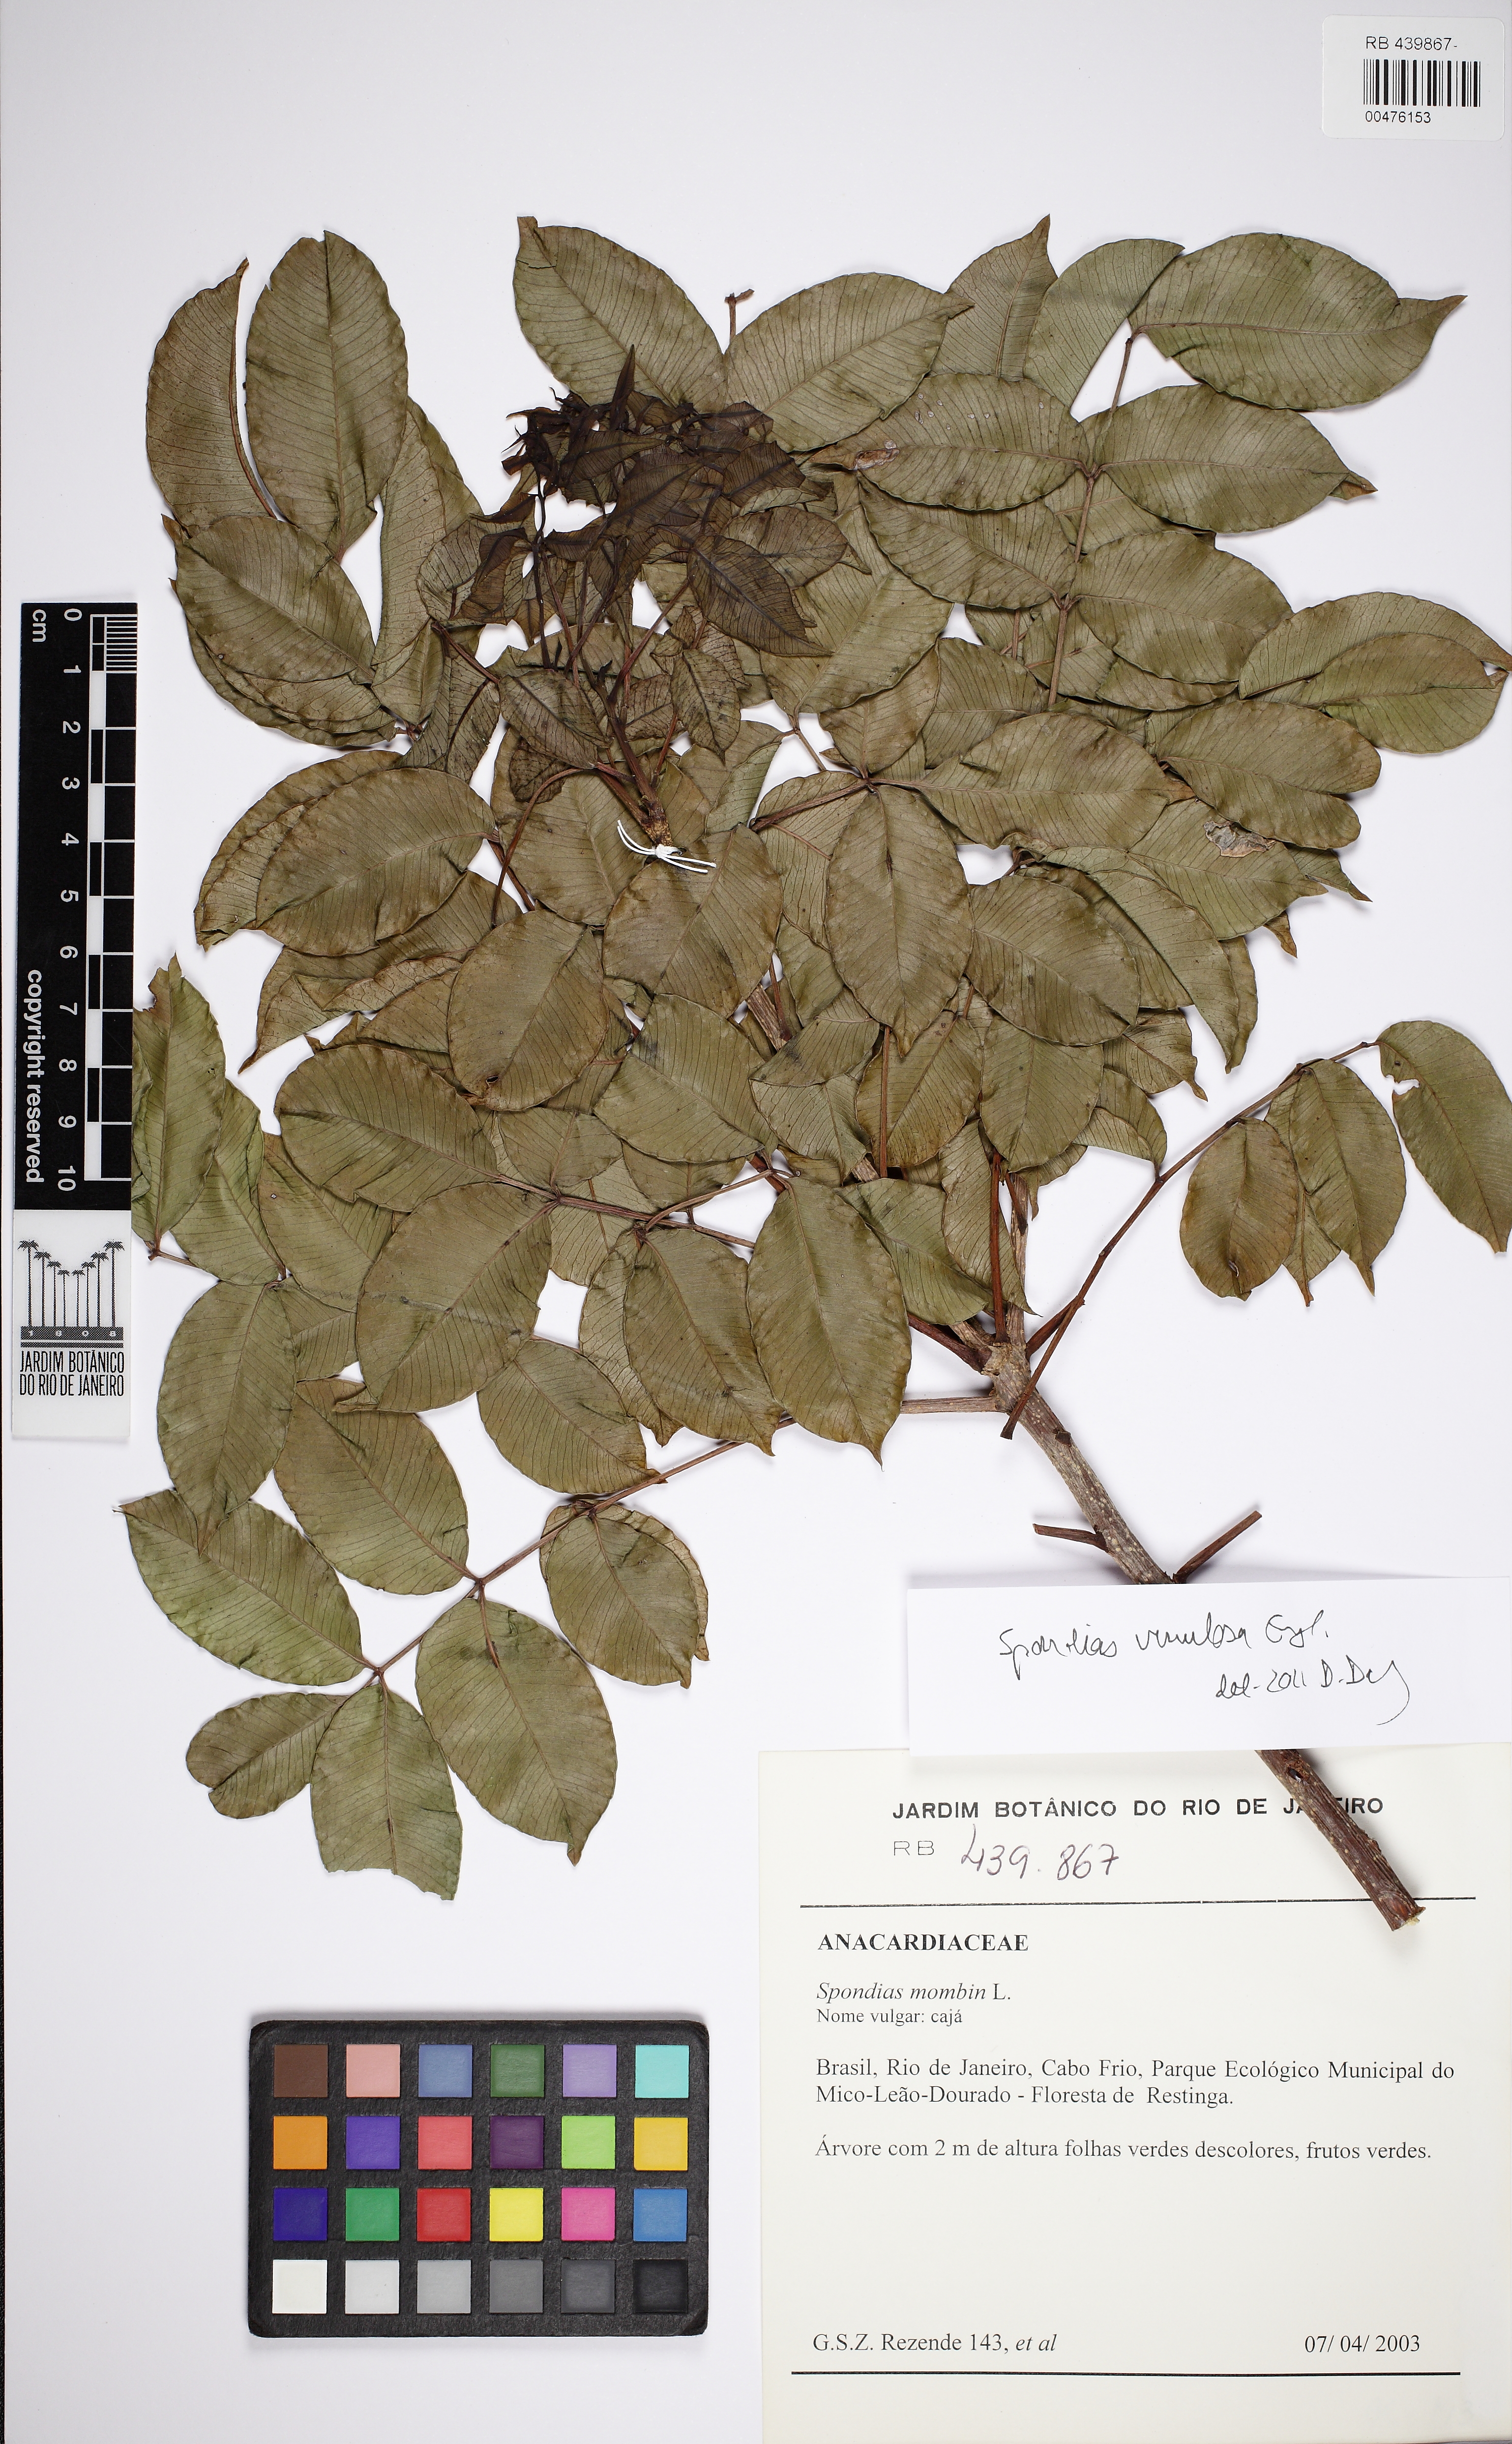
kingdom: Plantae
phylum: Tracheophyta
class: Magnoliopsida
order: Sapindales
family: Anacardiaceae
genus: Spondias
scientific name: Spondias venulosa
